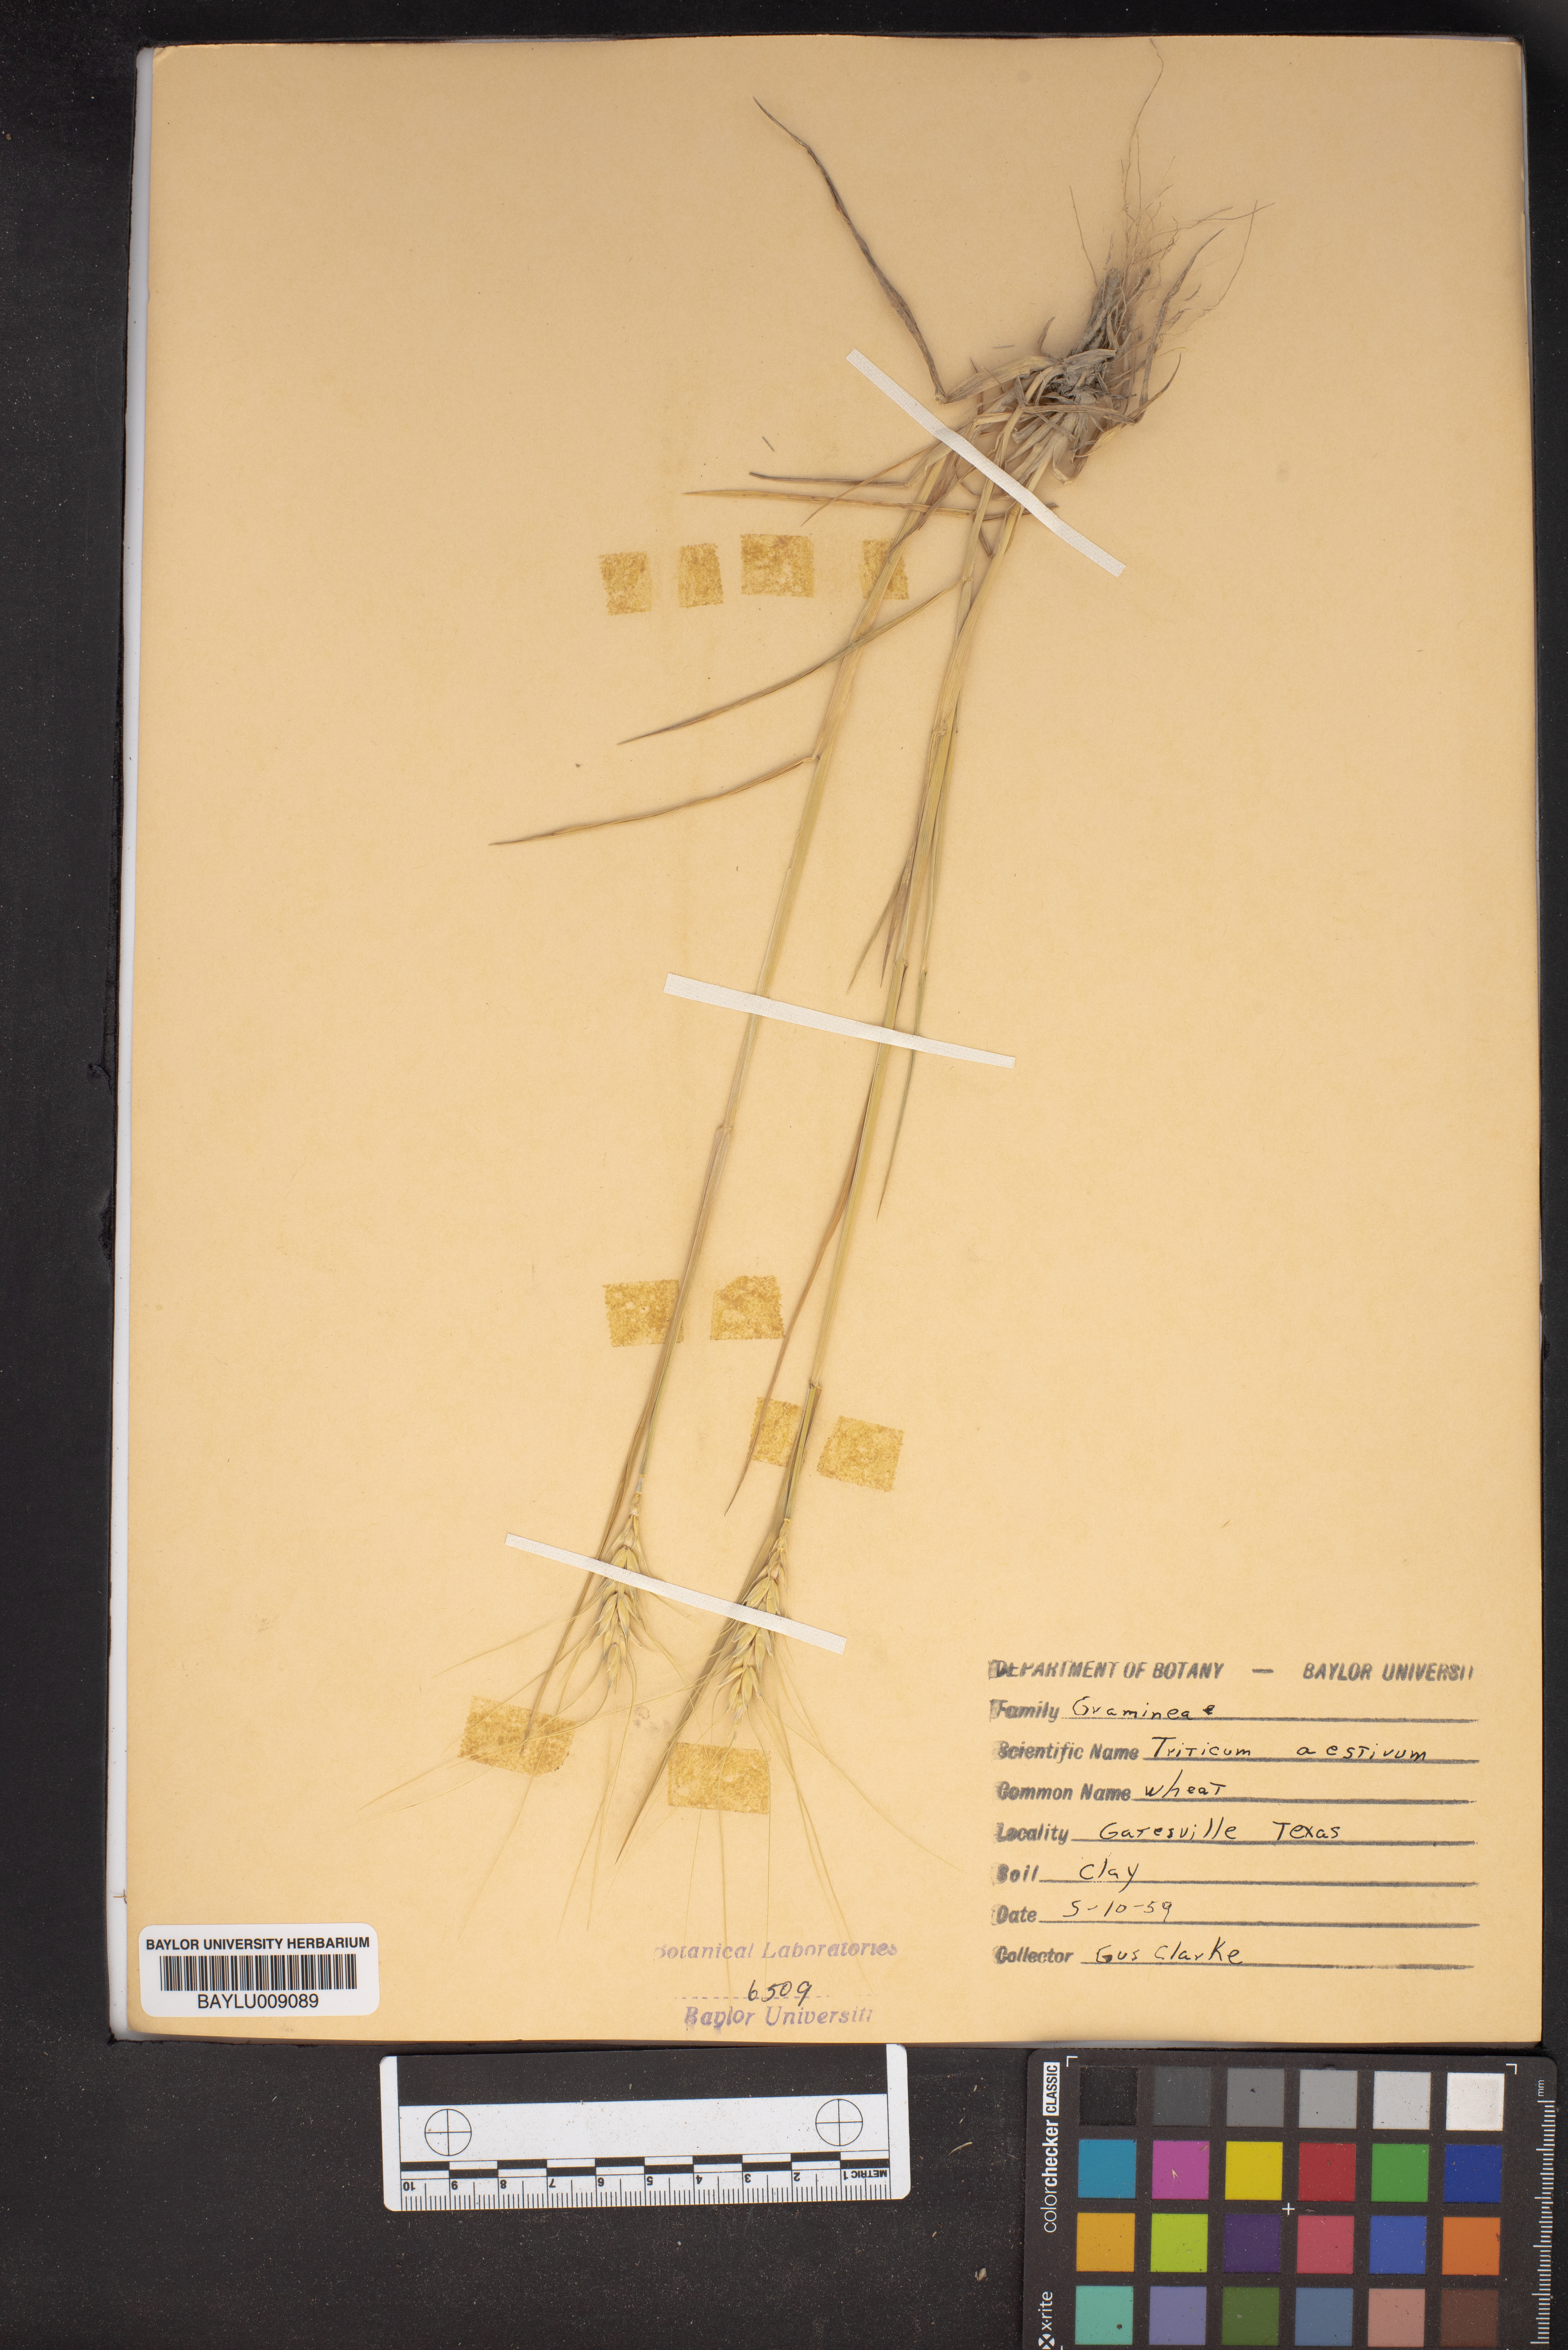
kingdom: Plantae
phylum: Tracheophyta
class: Liliopsida
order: Poales
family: Poaceae
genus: Triticum
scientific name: Triticum aestivum
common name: Common wheat
